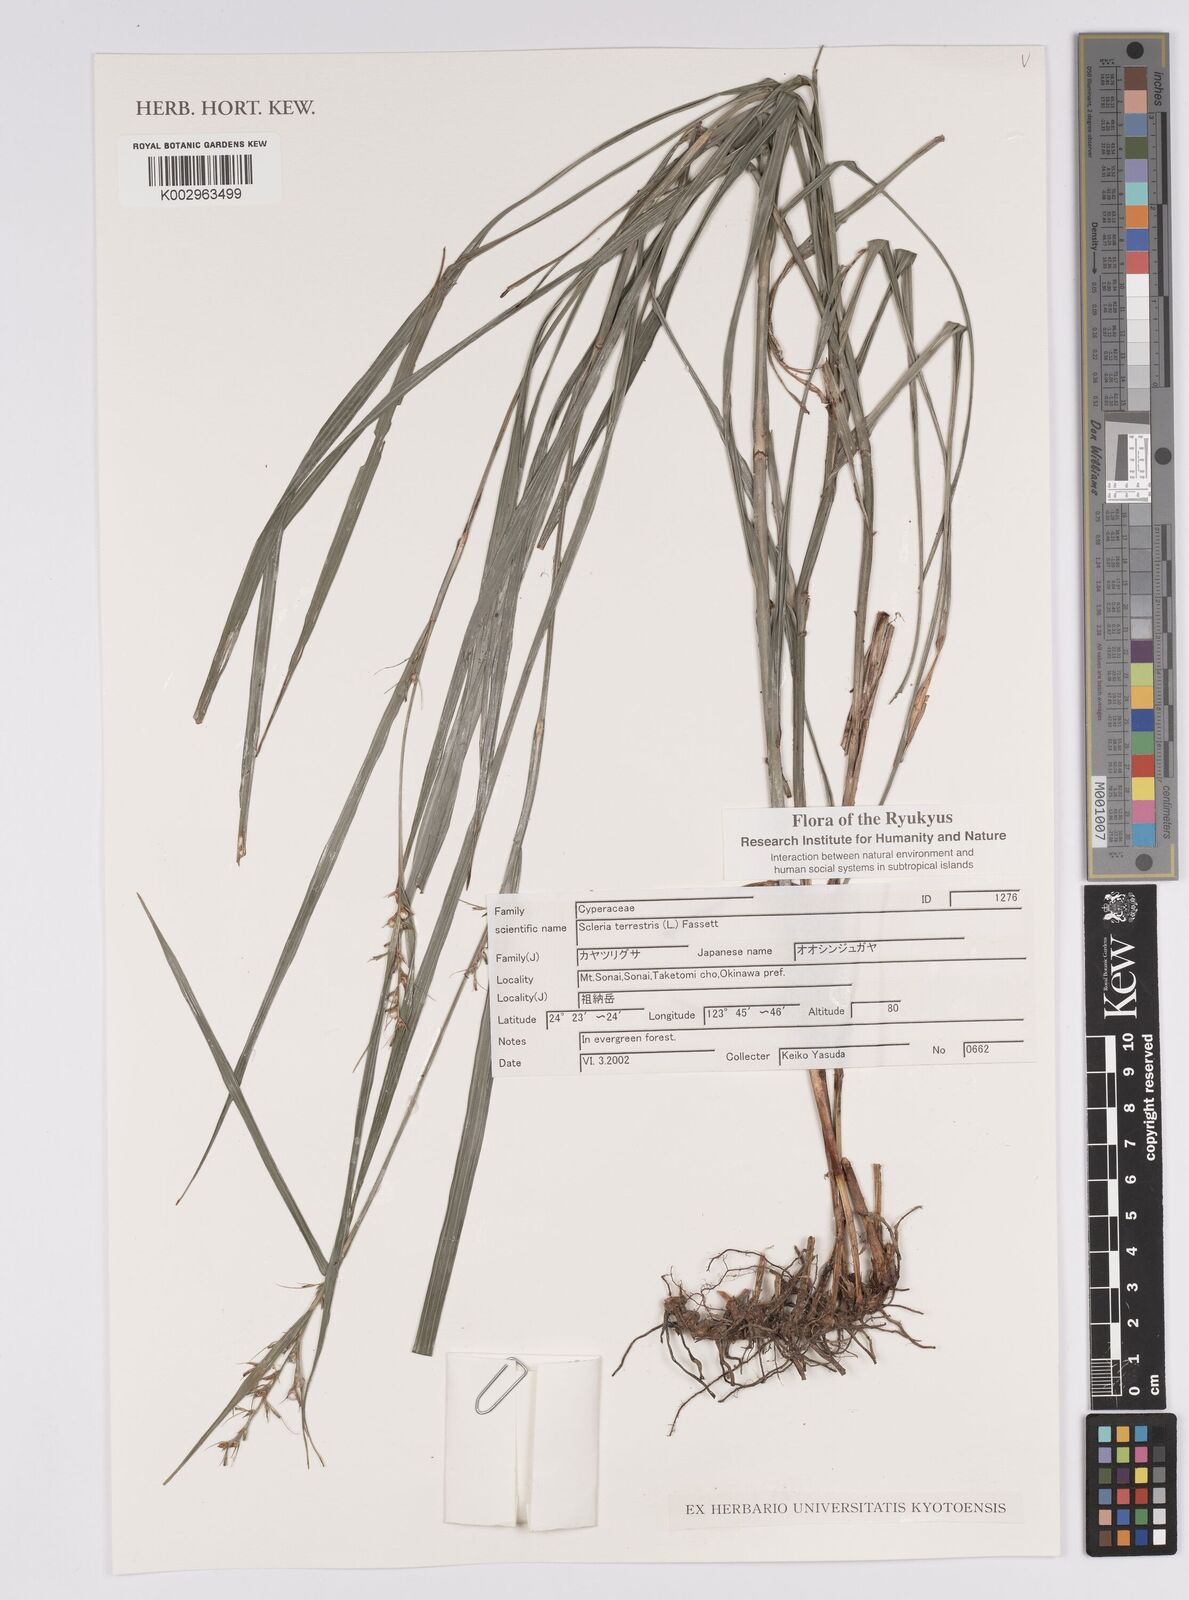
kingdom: Plantae
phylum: Tracheophyta
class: Liliopsida
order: Poales
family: Cyperaceae
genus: Scleria
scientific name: Scleria terrestris
